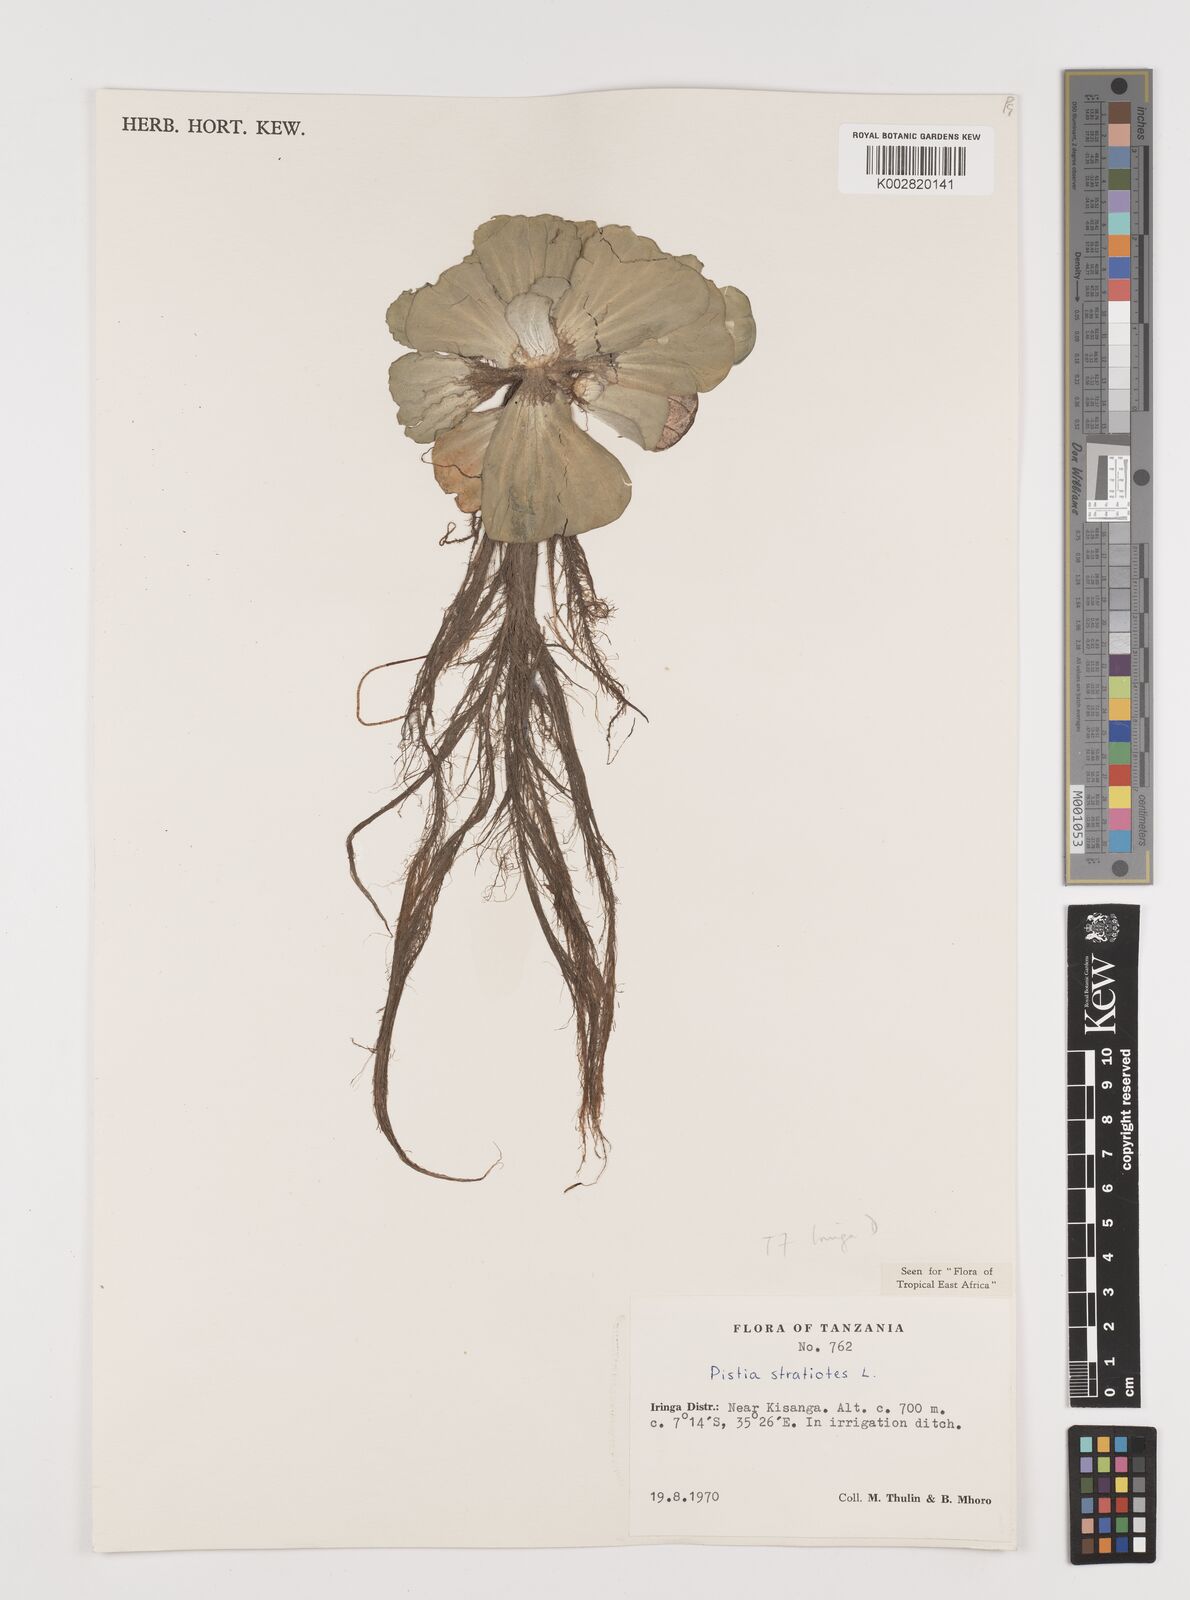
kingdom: Plantae
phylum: Tracheophyta
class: Liliopsida
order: Alismatales
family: Araceae
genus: Pistia
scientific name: Pistia stratiotes
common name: Water lettuce
